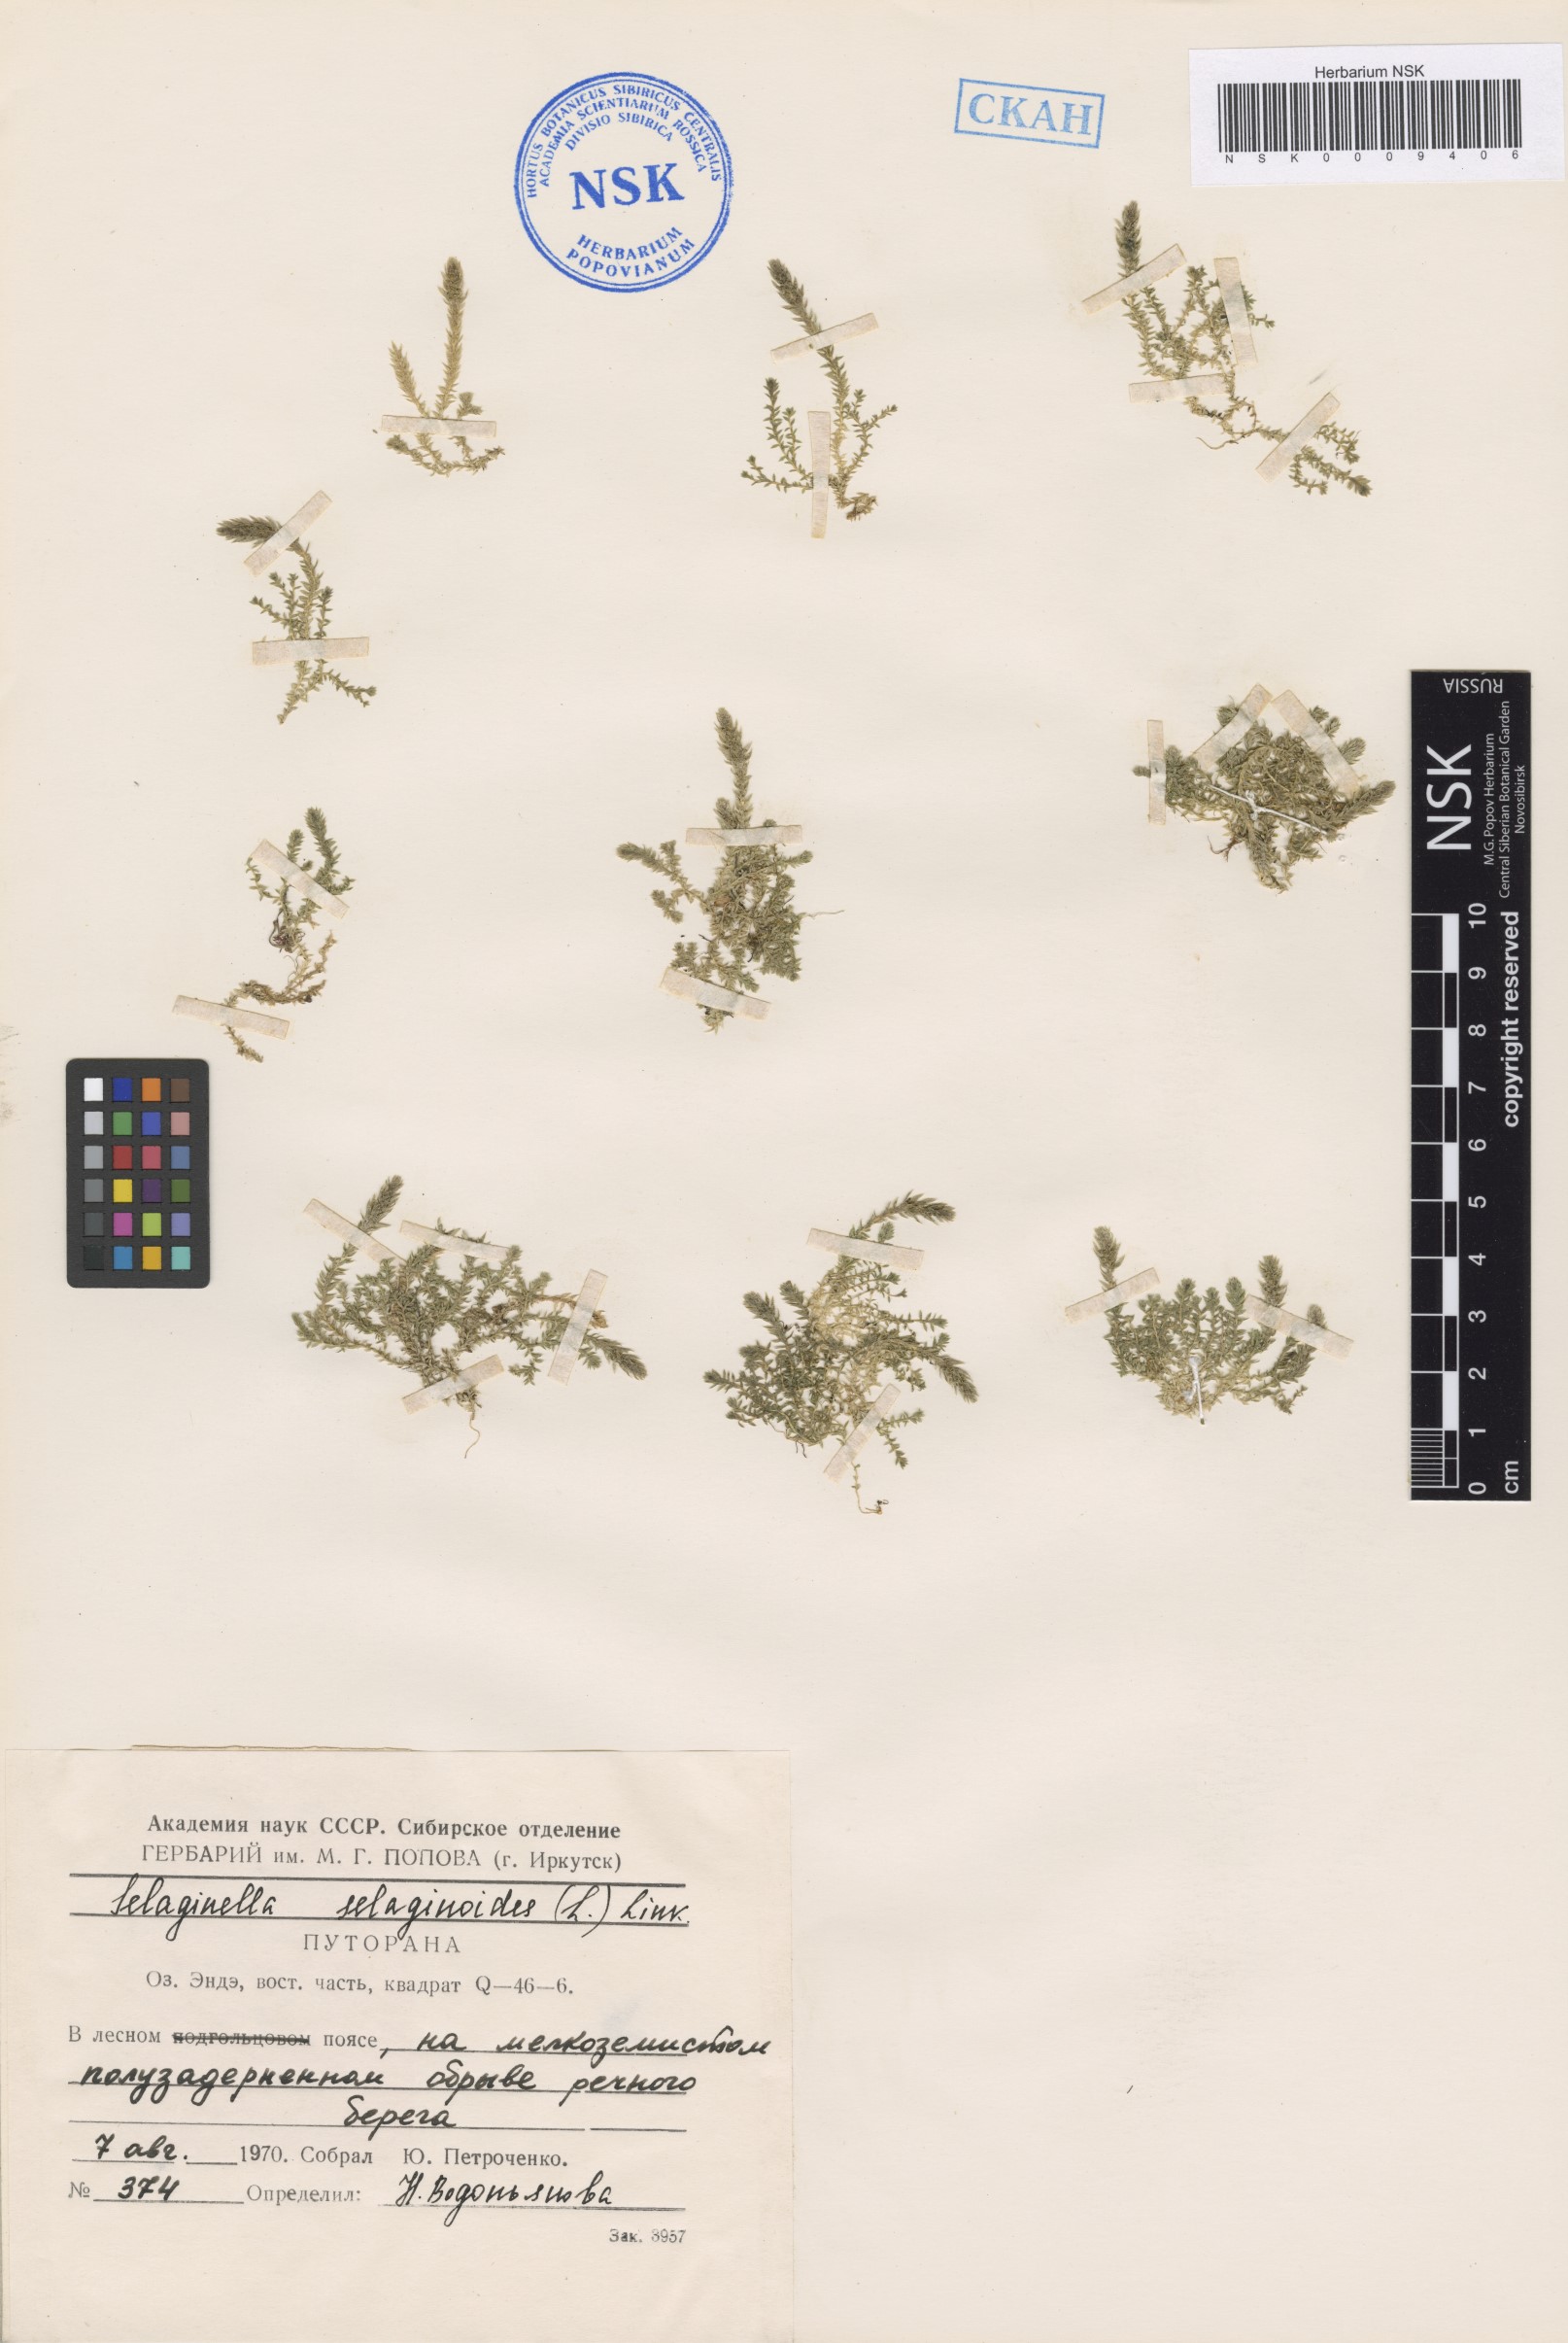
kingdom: Plantae
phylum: Tracheophyta
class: Lycopodiopsida
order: Selaginellales
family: Selaginellaceae
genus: Selaginella
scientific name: Selaginella selaginoides
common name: Prickly mountain-moss
